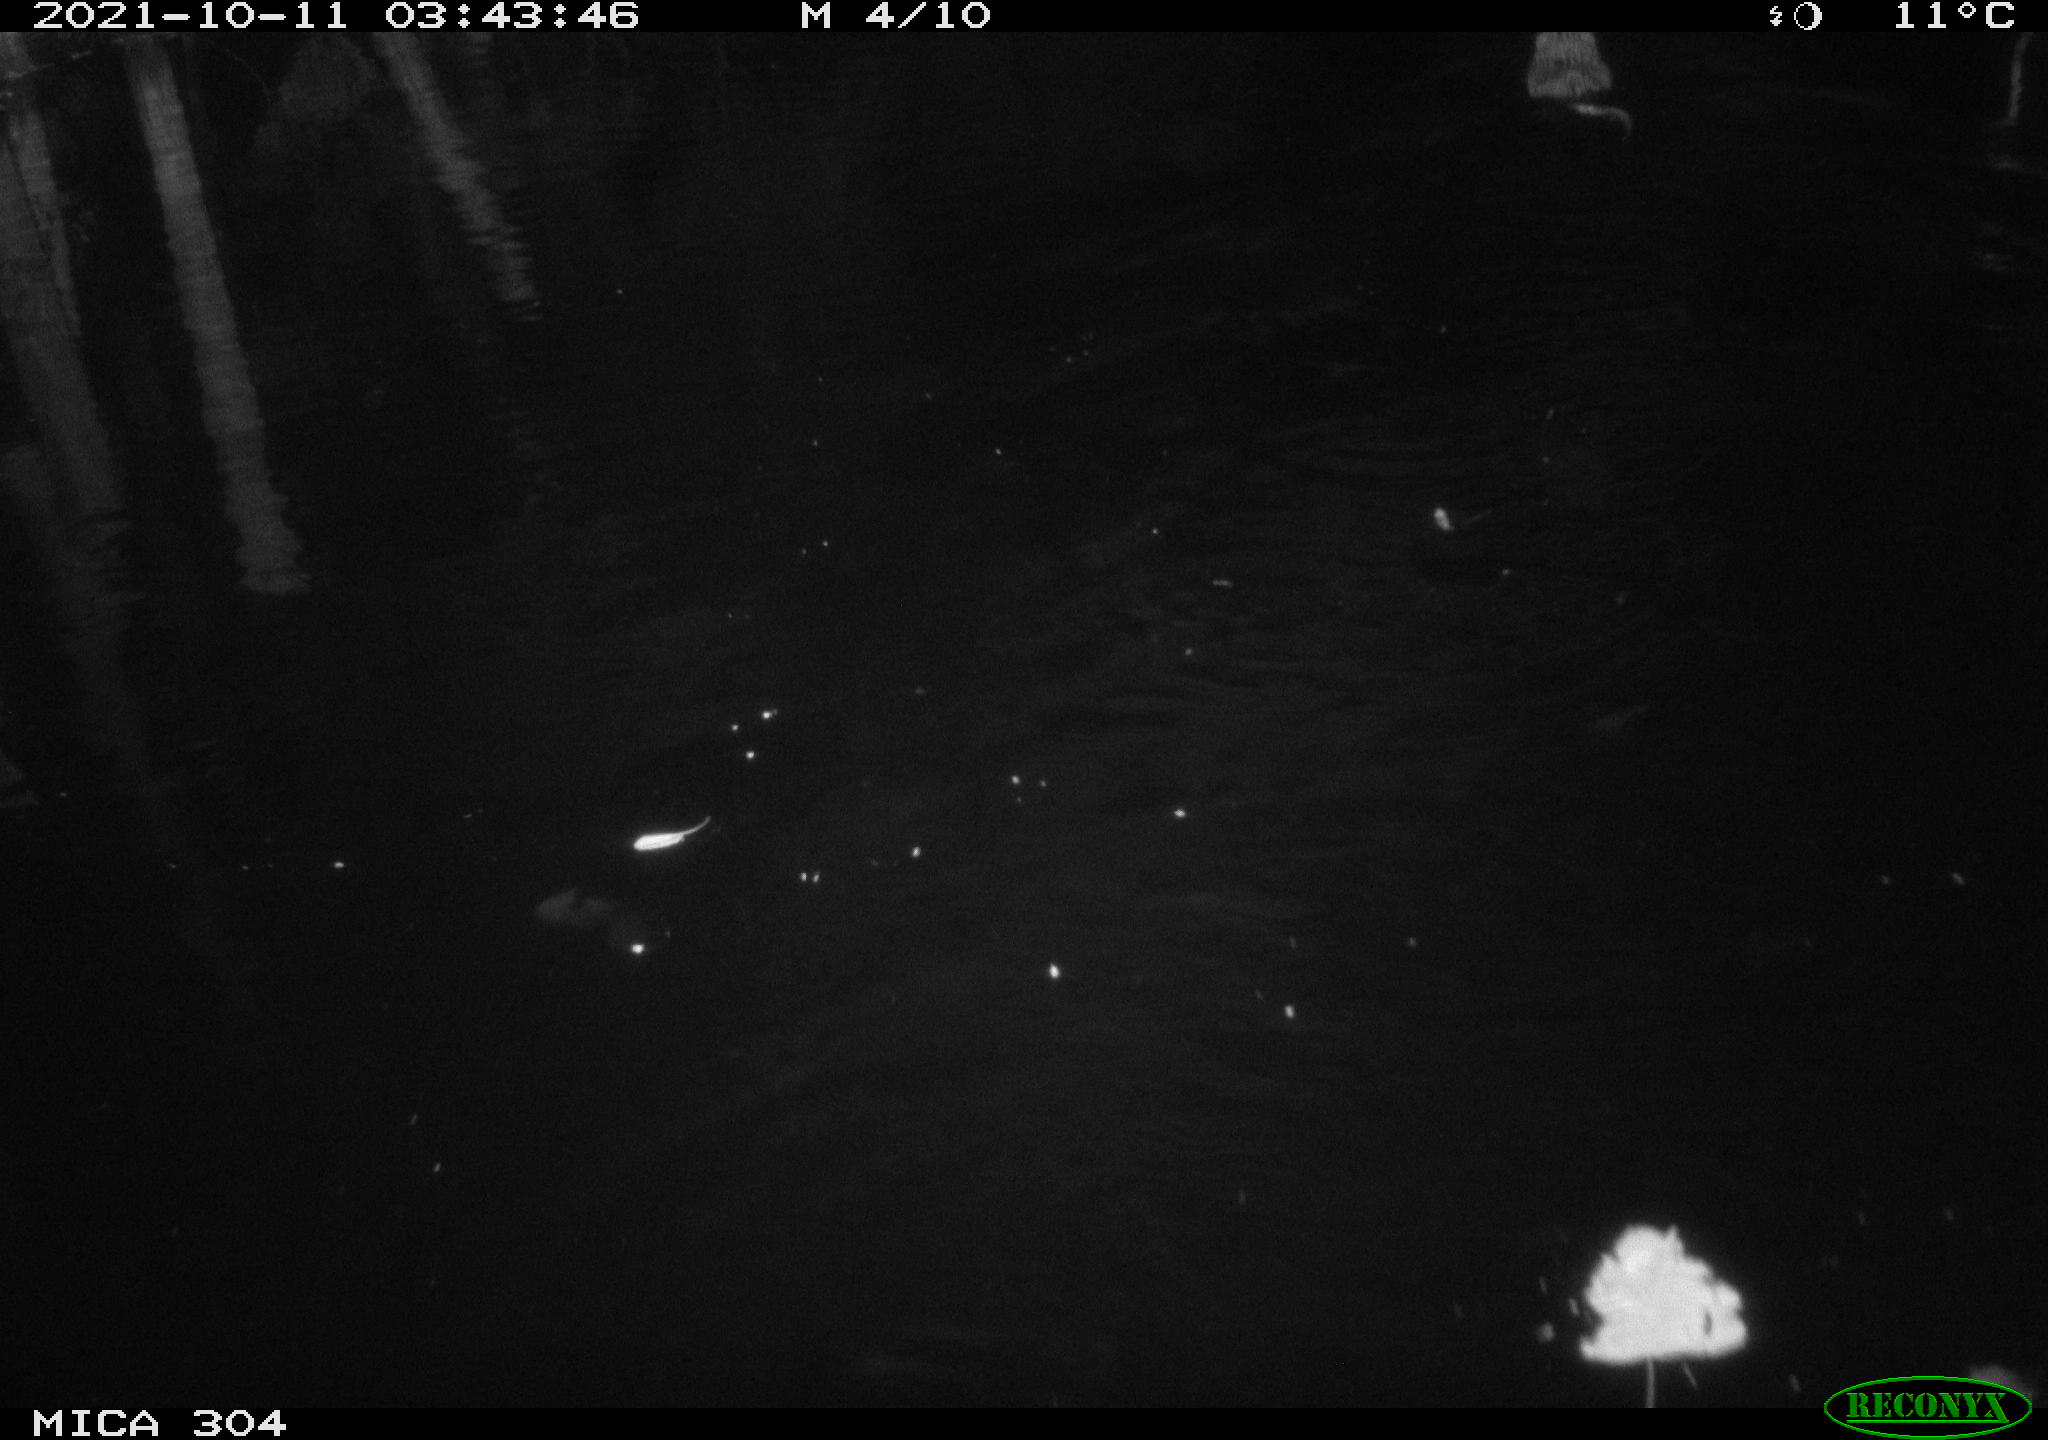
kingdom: Animalia
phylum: Chordata
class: Mammalia
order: Rodentia
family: Cricetidae
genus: Ondatra
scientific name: Ondatra zibethicus
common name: Muskrat
